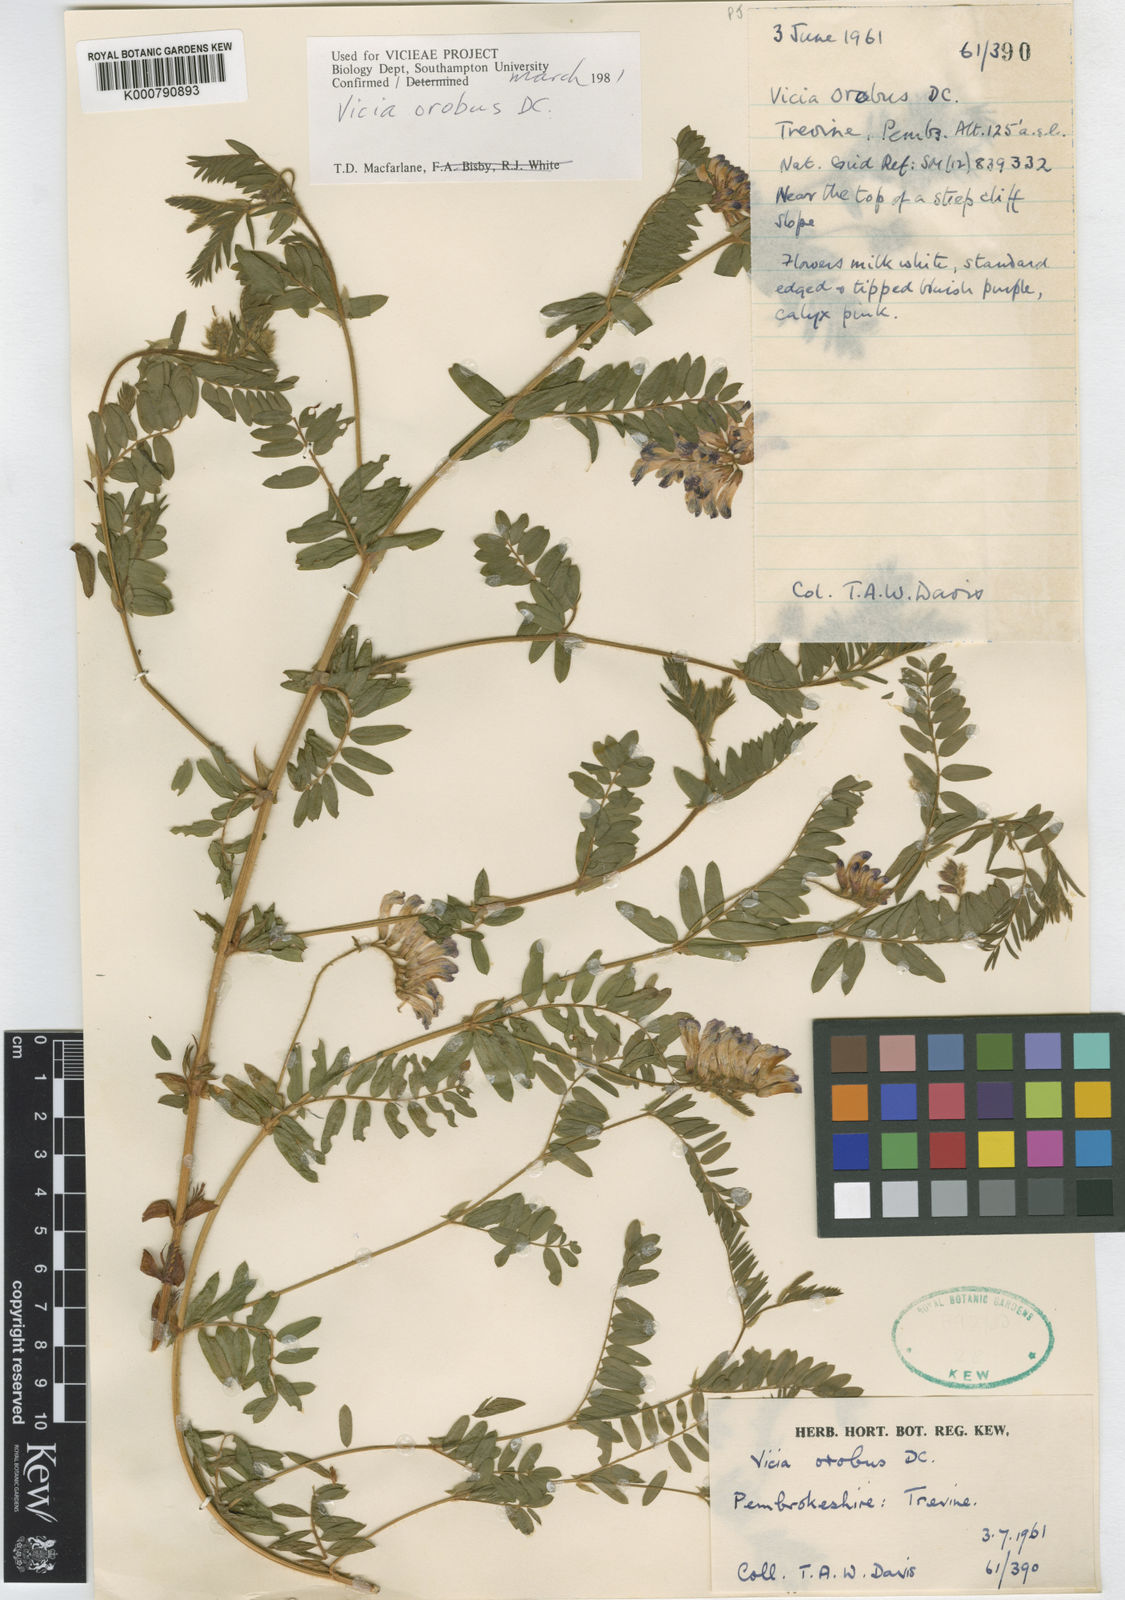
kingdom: Plantae
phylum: Tracheophyta
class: Magnoliopsida
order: Fabales
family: Fabaceae
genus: Vicia
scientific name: Vicia orobus
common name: Wood bitter-vetch
